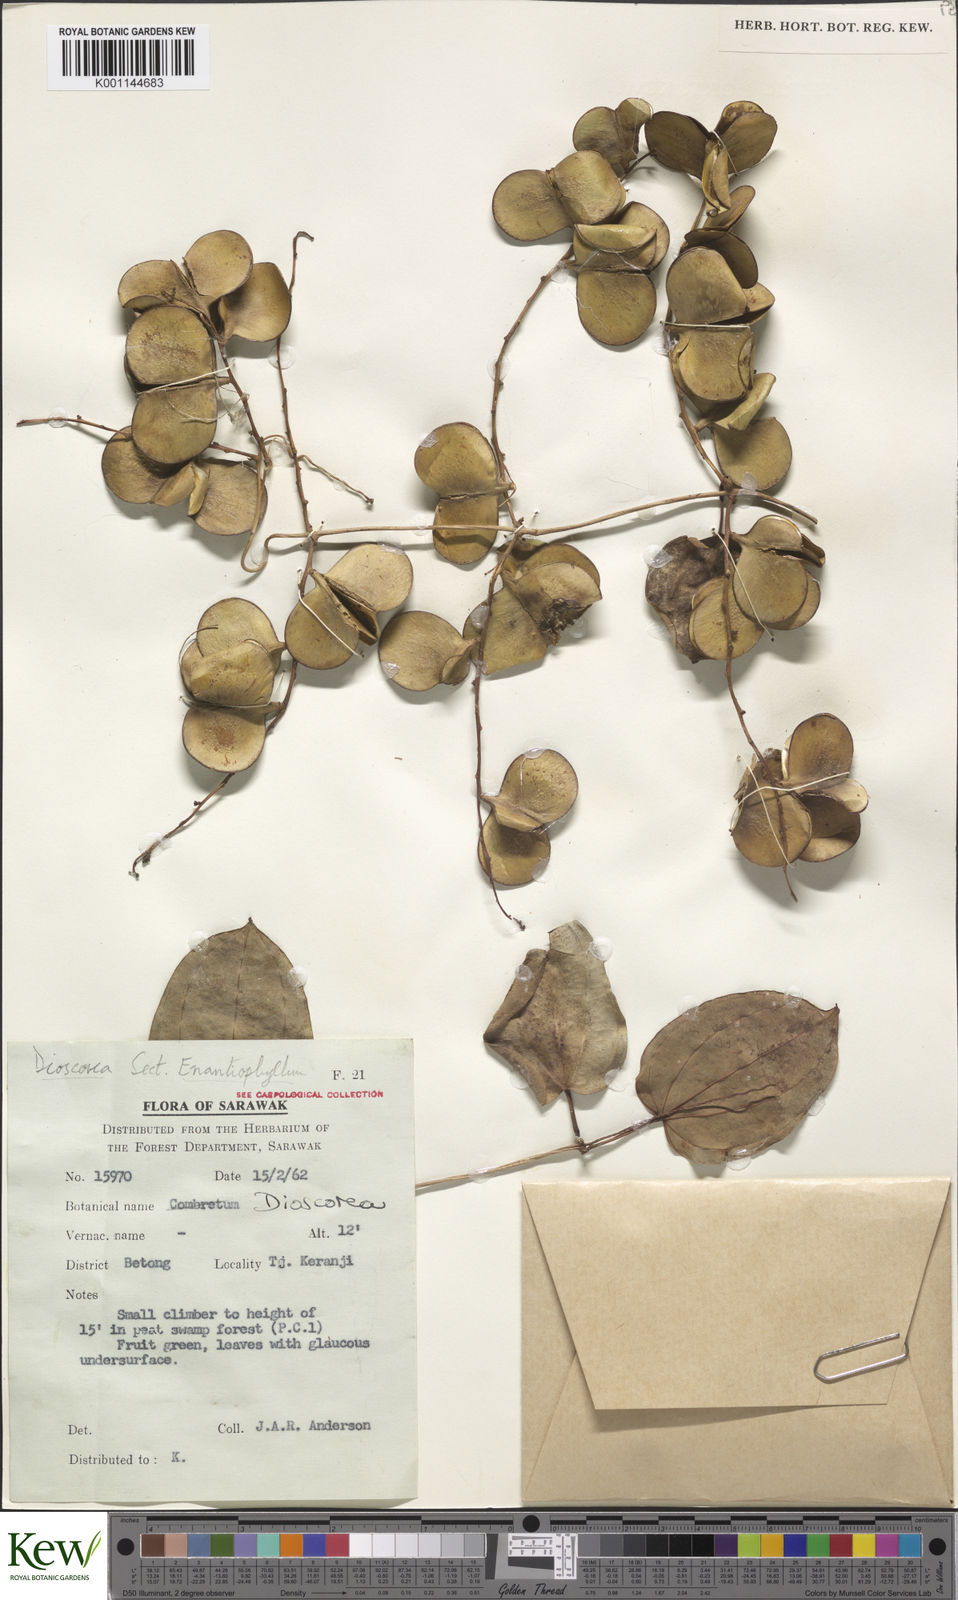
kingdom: Plantae
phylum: Tracheophyta
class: Liliopsida
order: Dioscoreales
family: Dioscoreaceae
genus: Dioscorea
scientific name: Dioscorea
